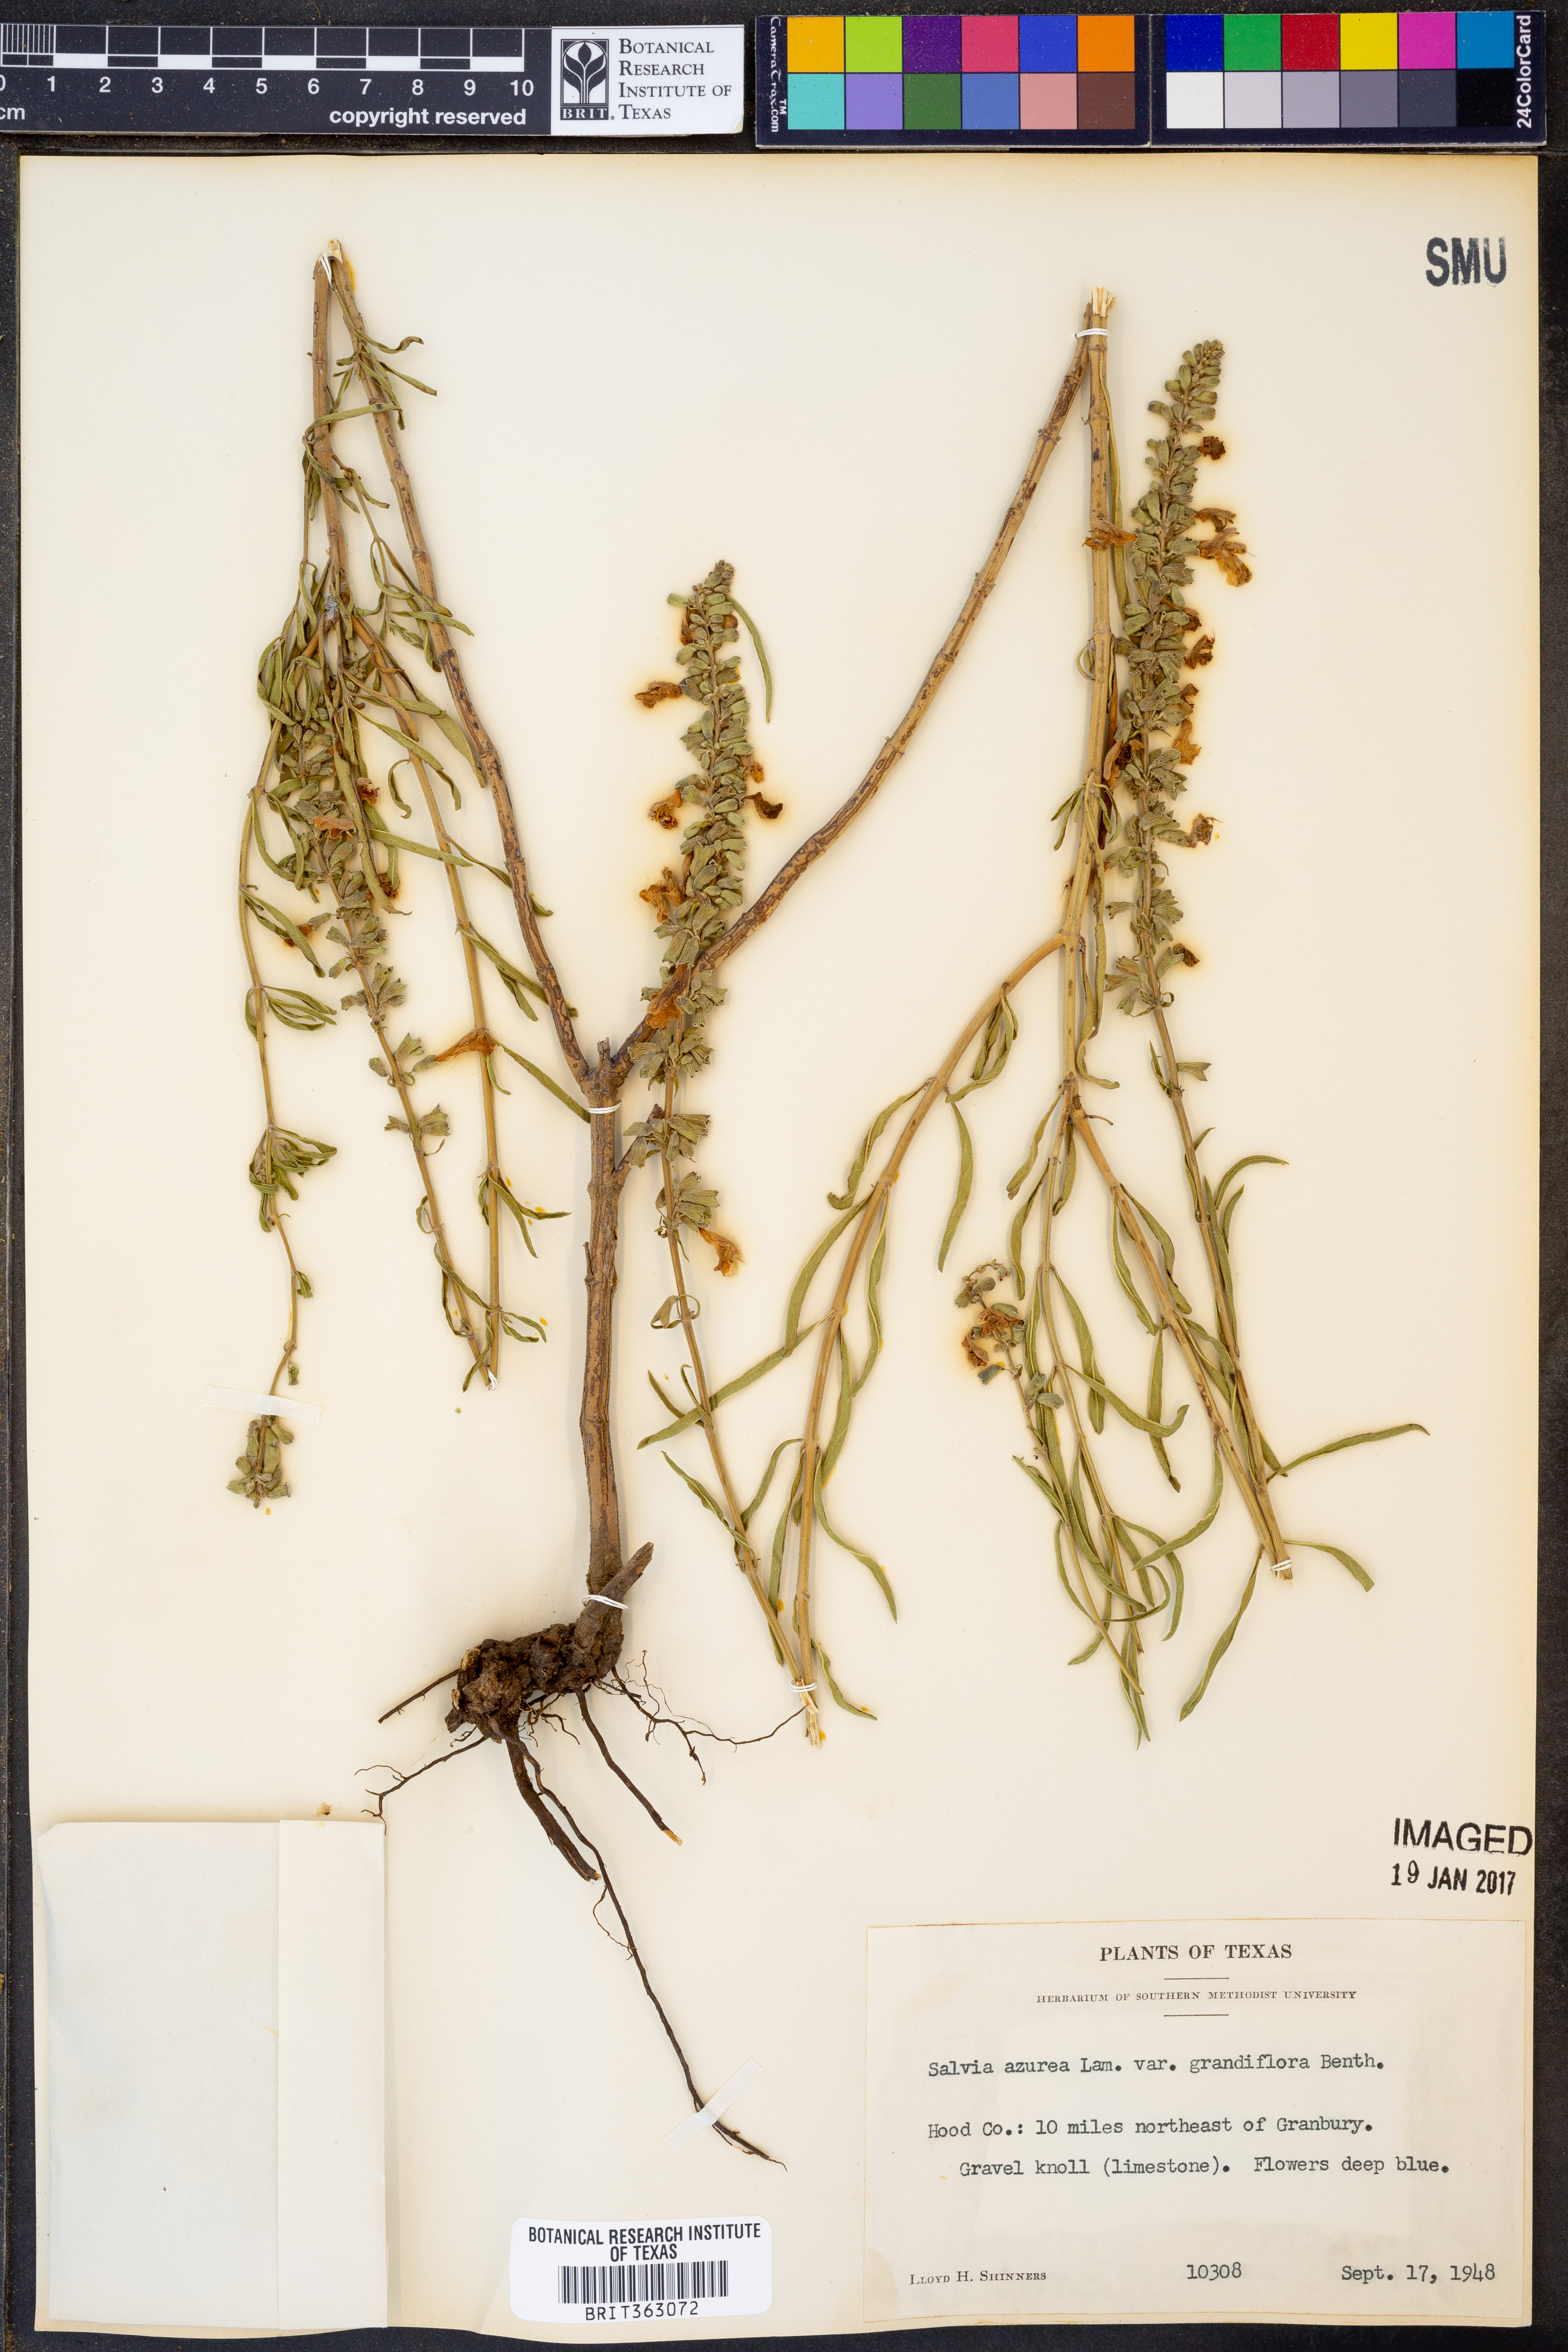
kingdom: Plantae
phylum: Tracheophyta
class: Magnoliopsida
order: Lamiales
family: Lamiaceae
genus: Salvia
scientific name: Salvia azurea
